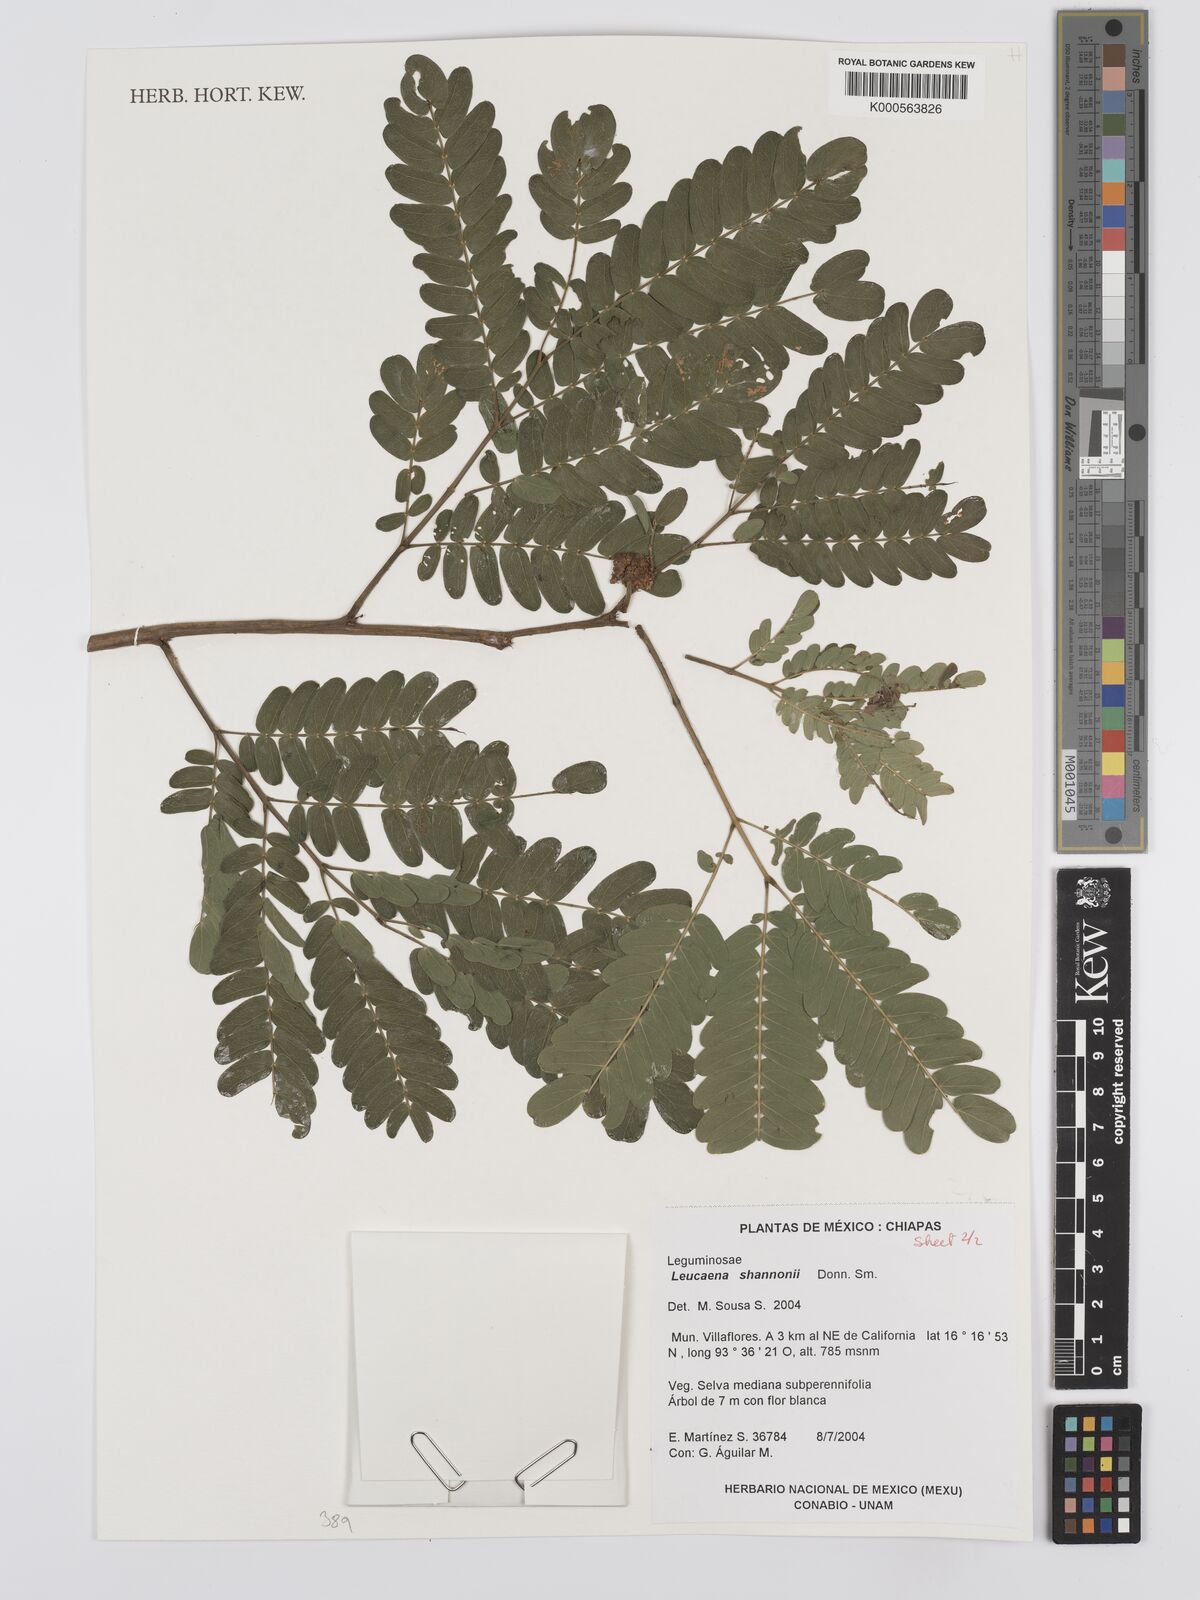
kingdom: Plantae
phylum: Tracheophyta
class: Magnoliopsida
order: Fabales
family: Fabaceae
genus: Leucaena
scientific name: Leucaena shannonii
